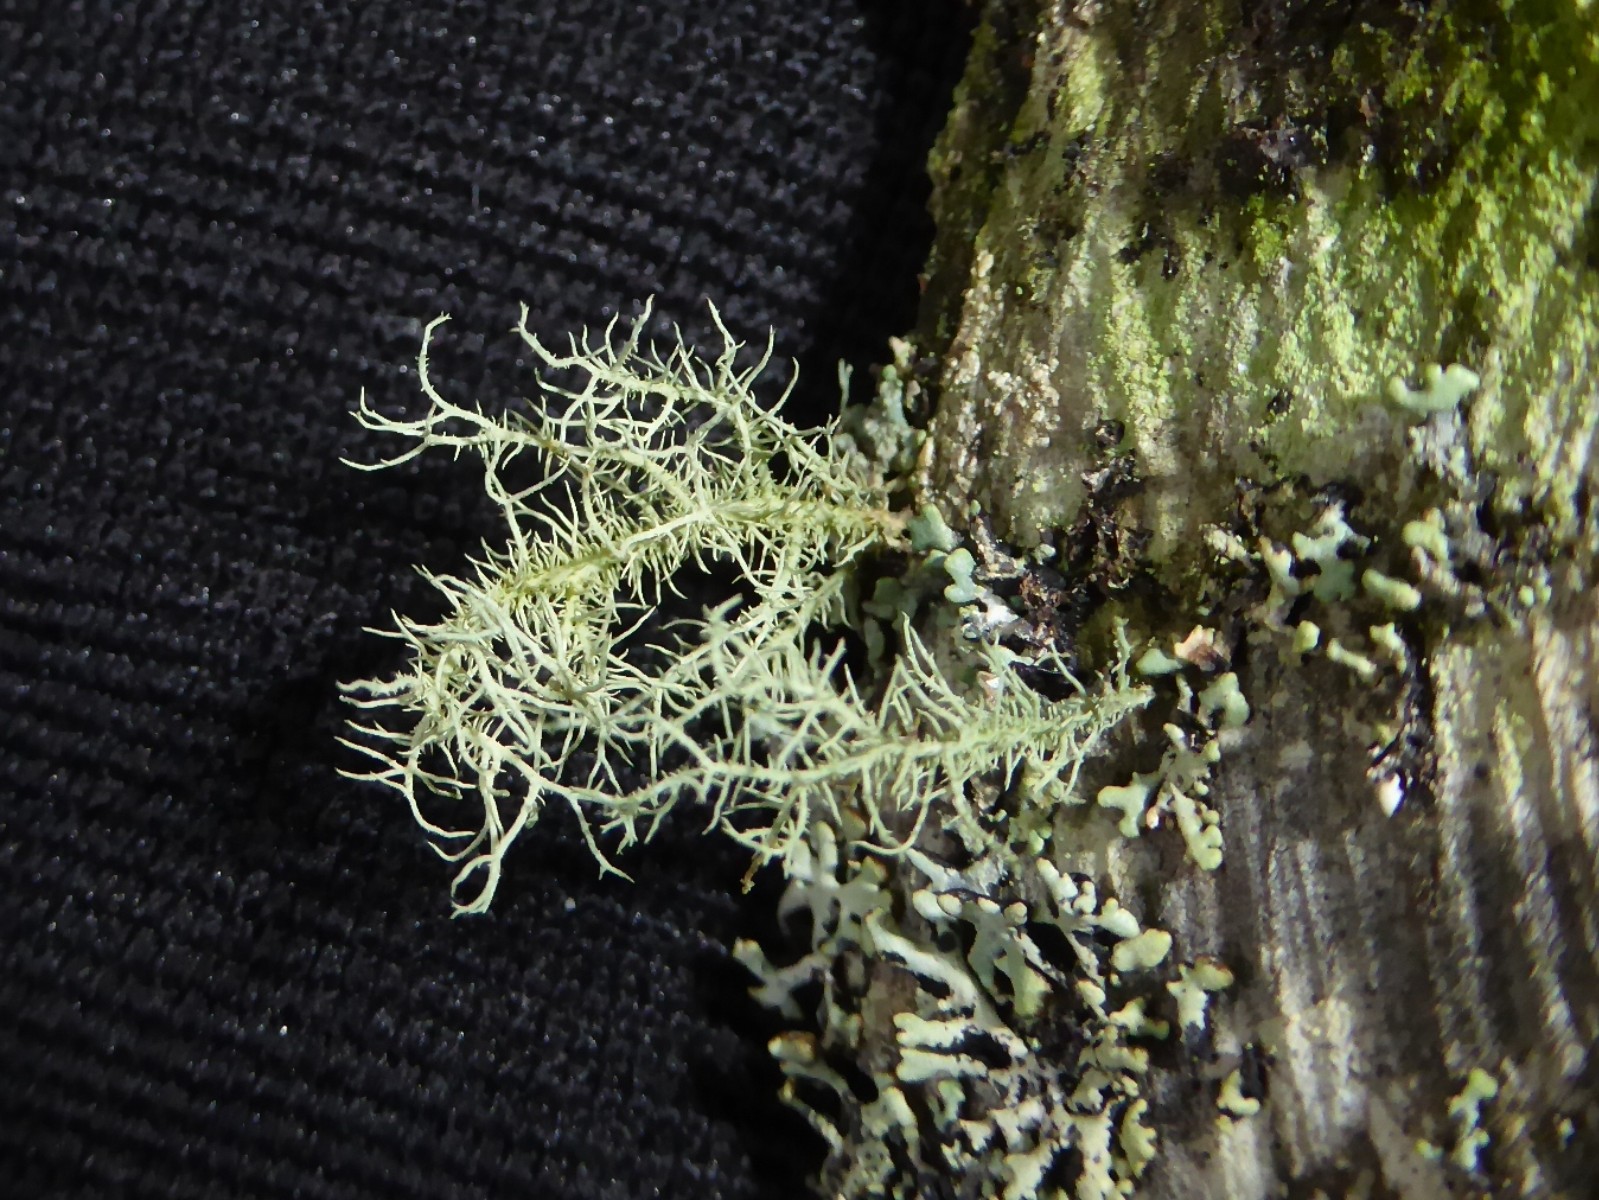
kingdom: Fungi
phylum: Ascomycota
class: Lecanoromycetes
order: Lecanorales
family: Parmeliaceae
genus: Usnea
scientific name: Usnea hirta
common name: liden skæglav
